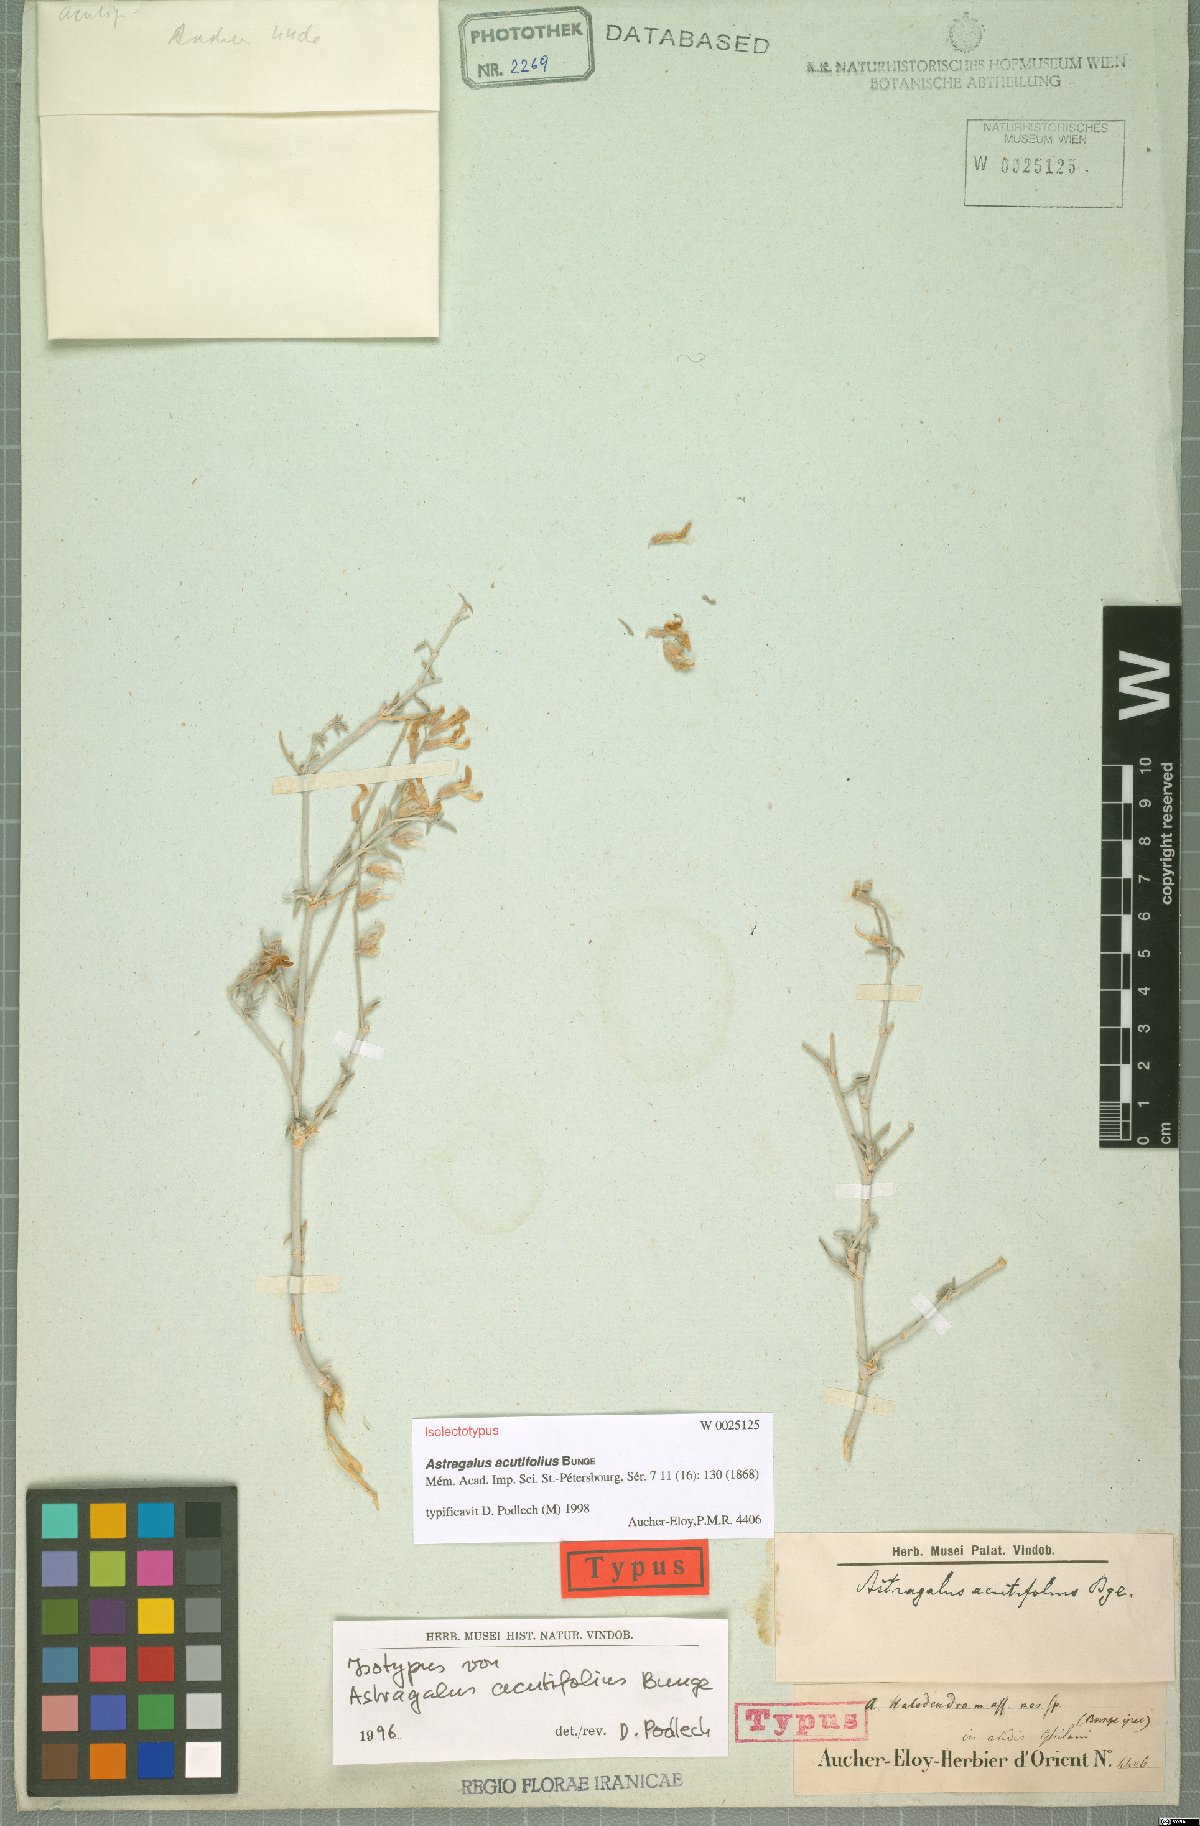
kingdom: Plantae
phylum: Tracheophyta
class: Magnoliopsida
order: Fabales
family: Fabaceae
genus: Astragalus
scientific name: Astragalus acutifolius
